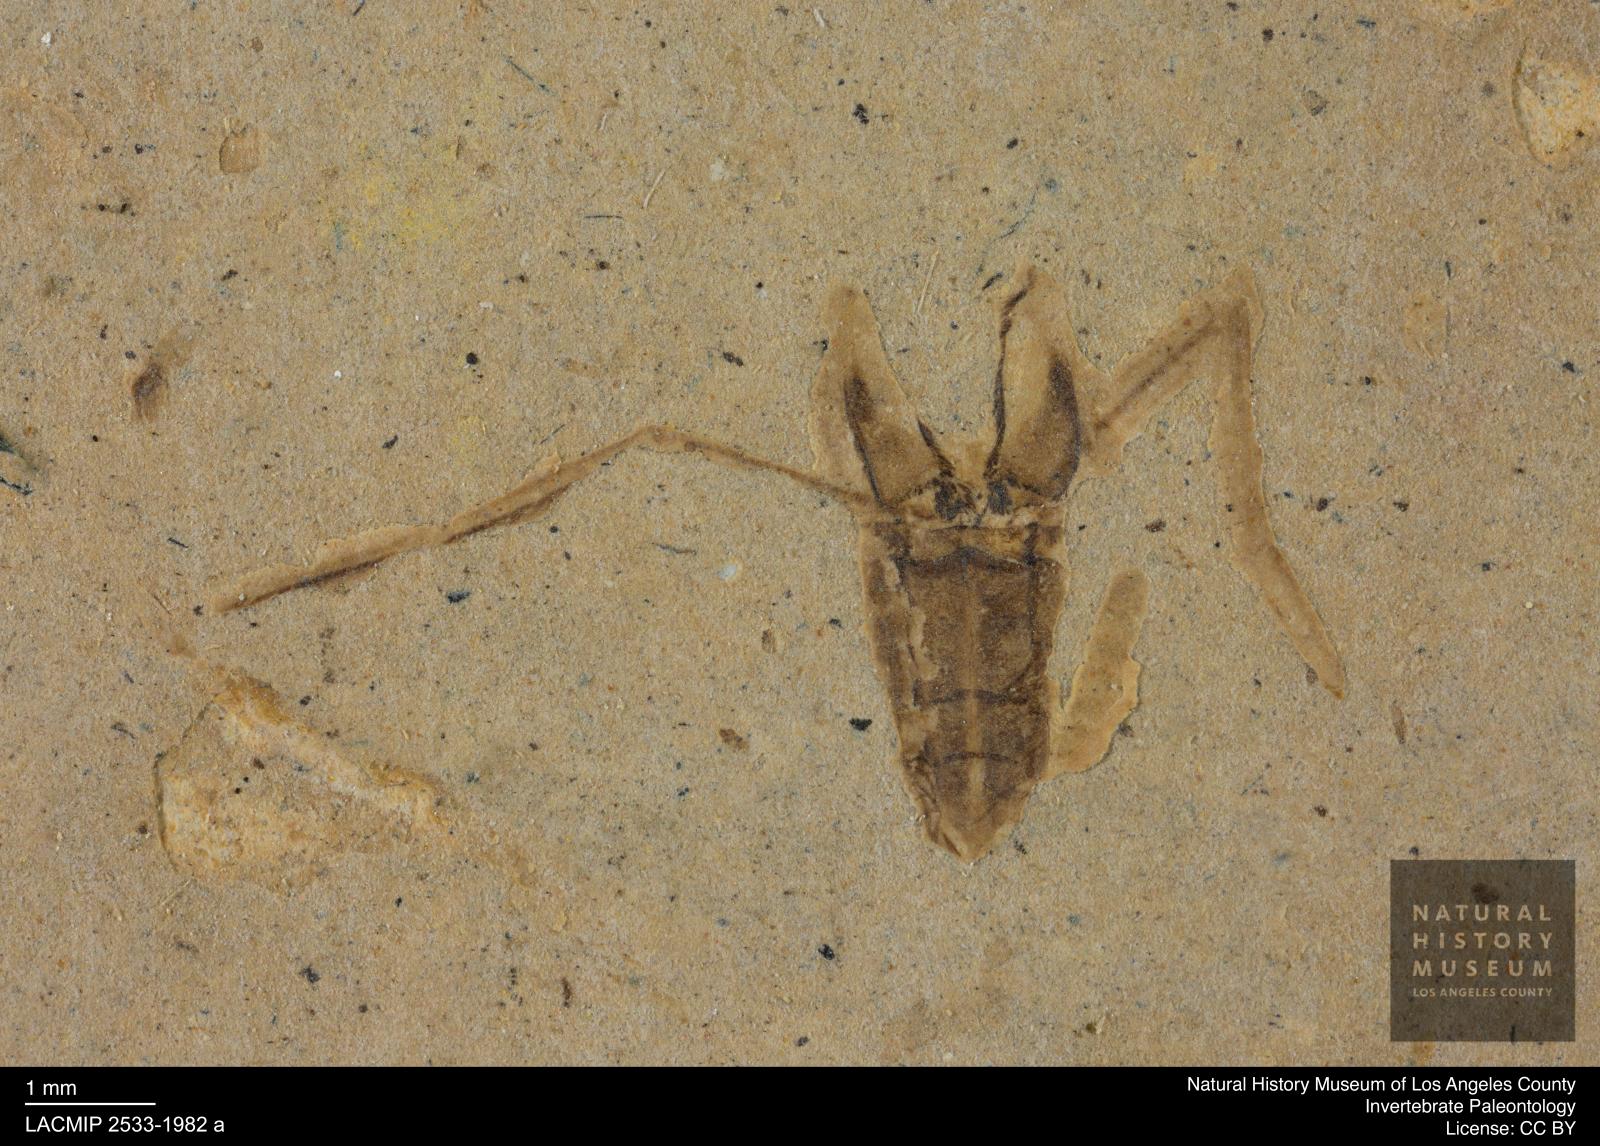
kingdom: Animalia
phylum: Arthropoda
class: Insecta
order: Hemiptera
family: Notonectidae
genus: Anisops
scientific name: Anisops Notonecta deichmuelleri
